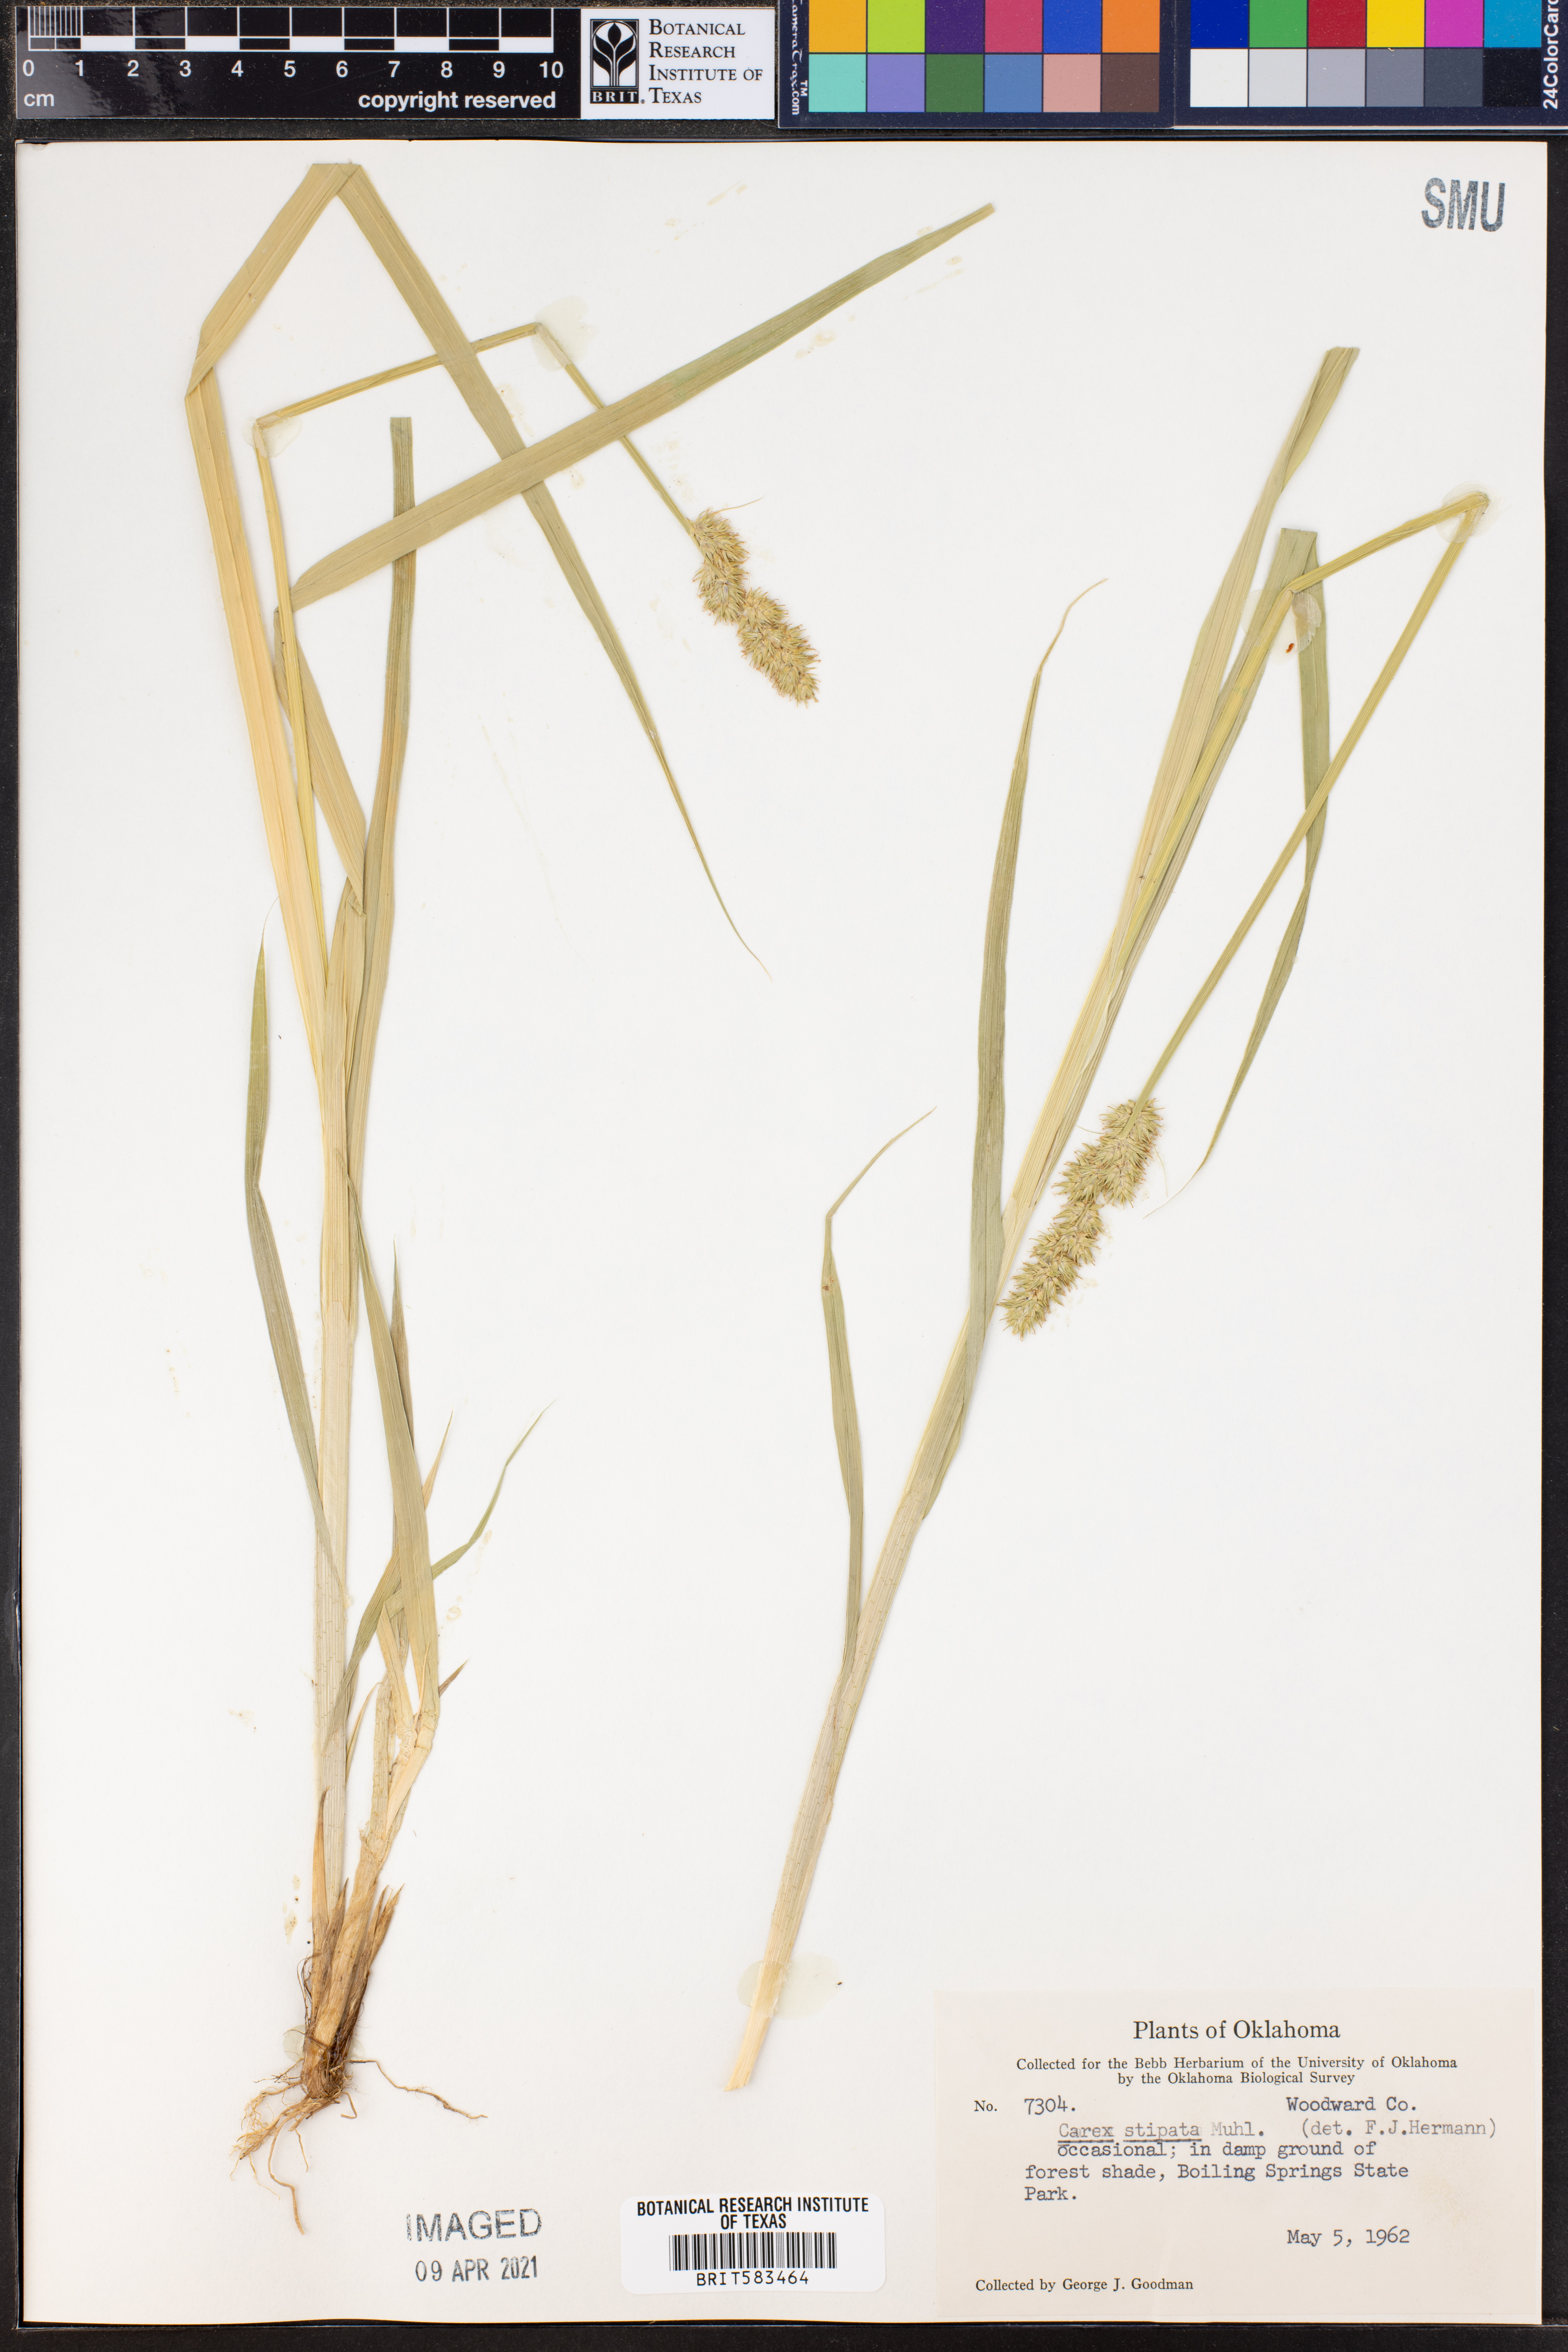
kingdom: Plantae
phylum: Tracheophyta
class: Liliopsida
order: Poales
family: Cyperaceae
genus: Carex
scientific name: Carex stipata
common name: Awl-fruited sedge
